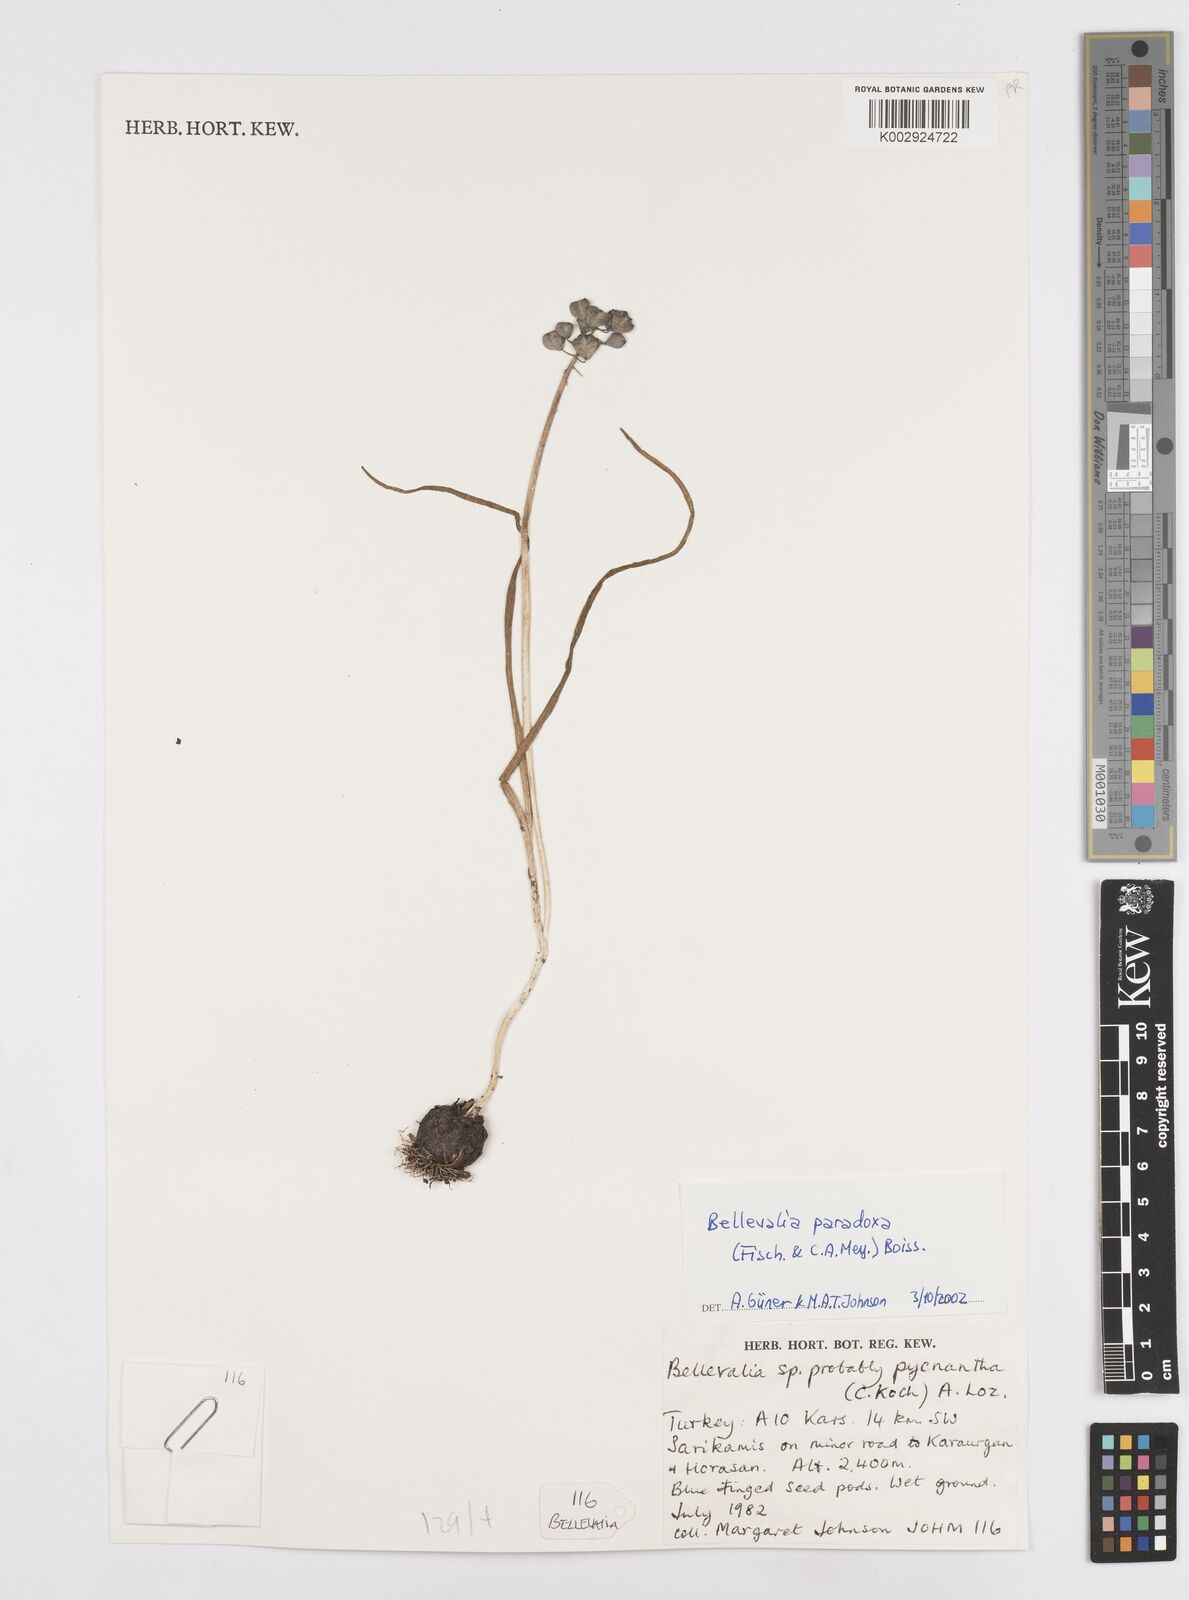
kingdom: Plantae
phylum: Tracheophyta
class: Liliopsida
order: Asparagales
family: Asparagaceae
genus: Bellevalia
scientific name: Bellevalia paradoxa
